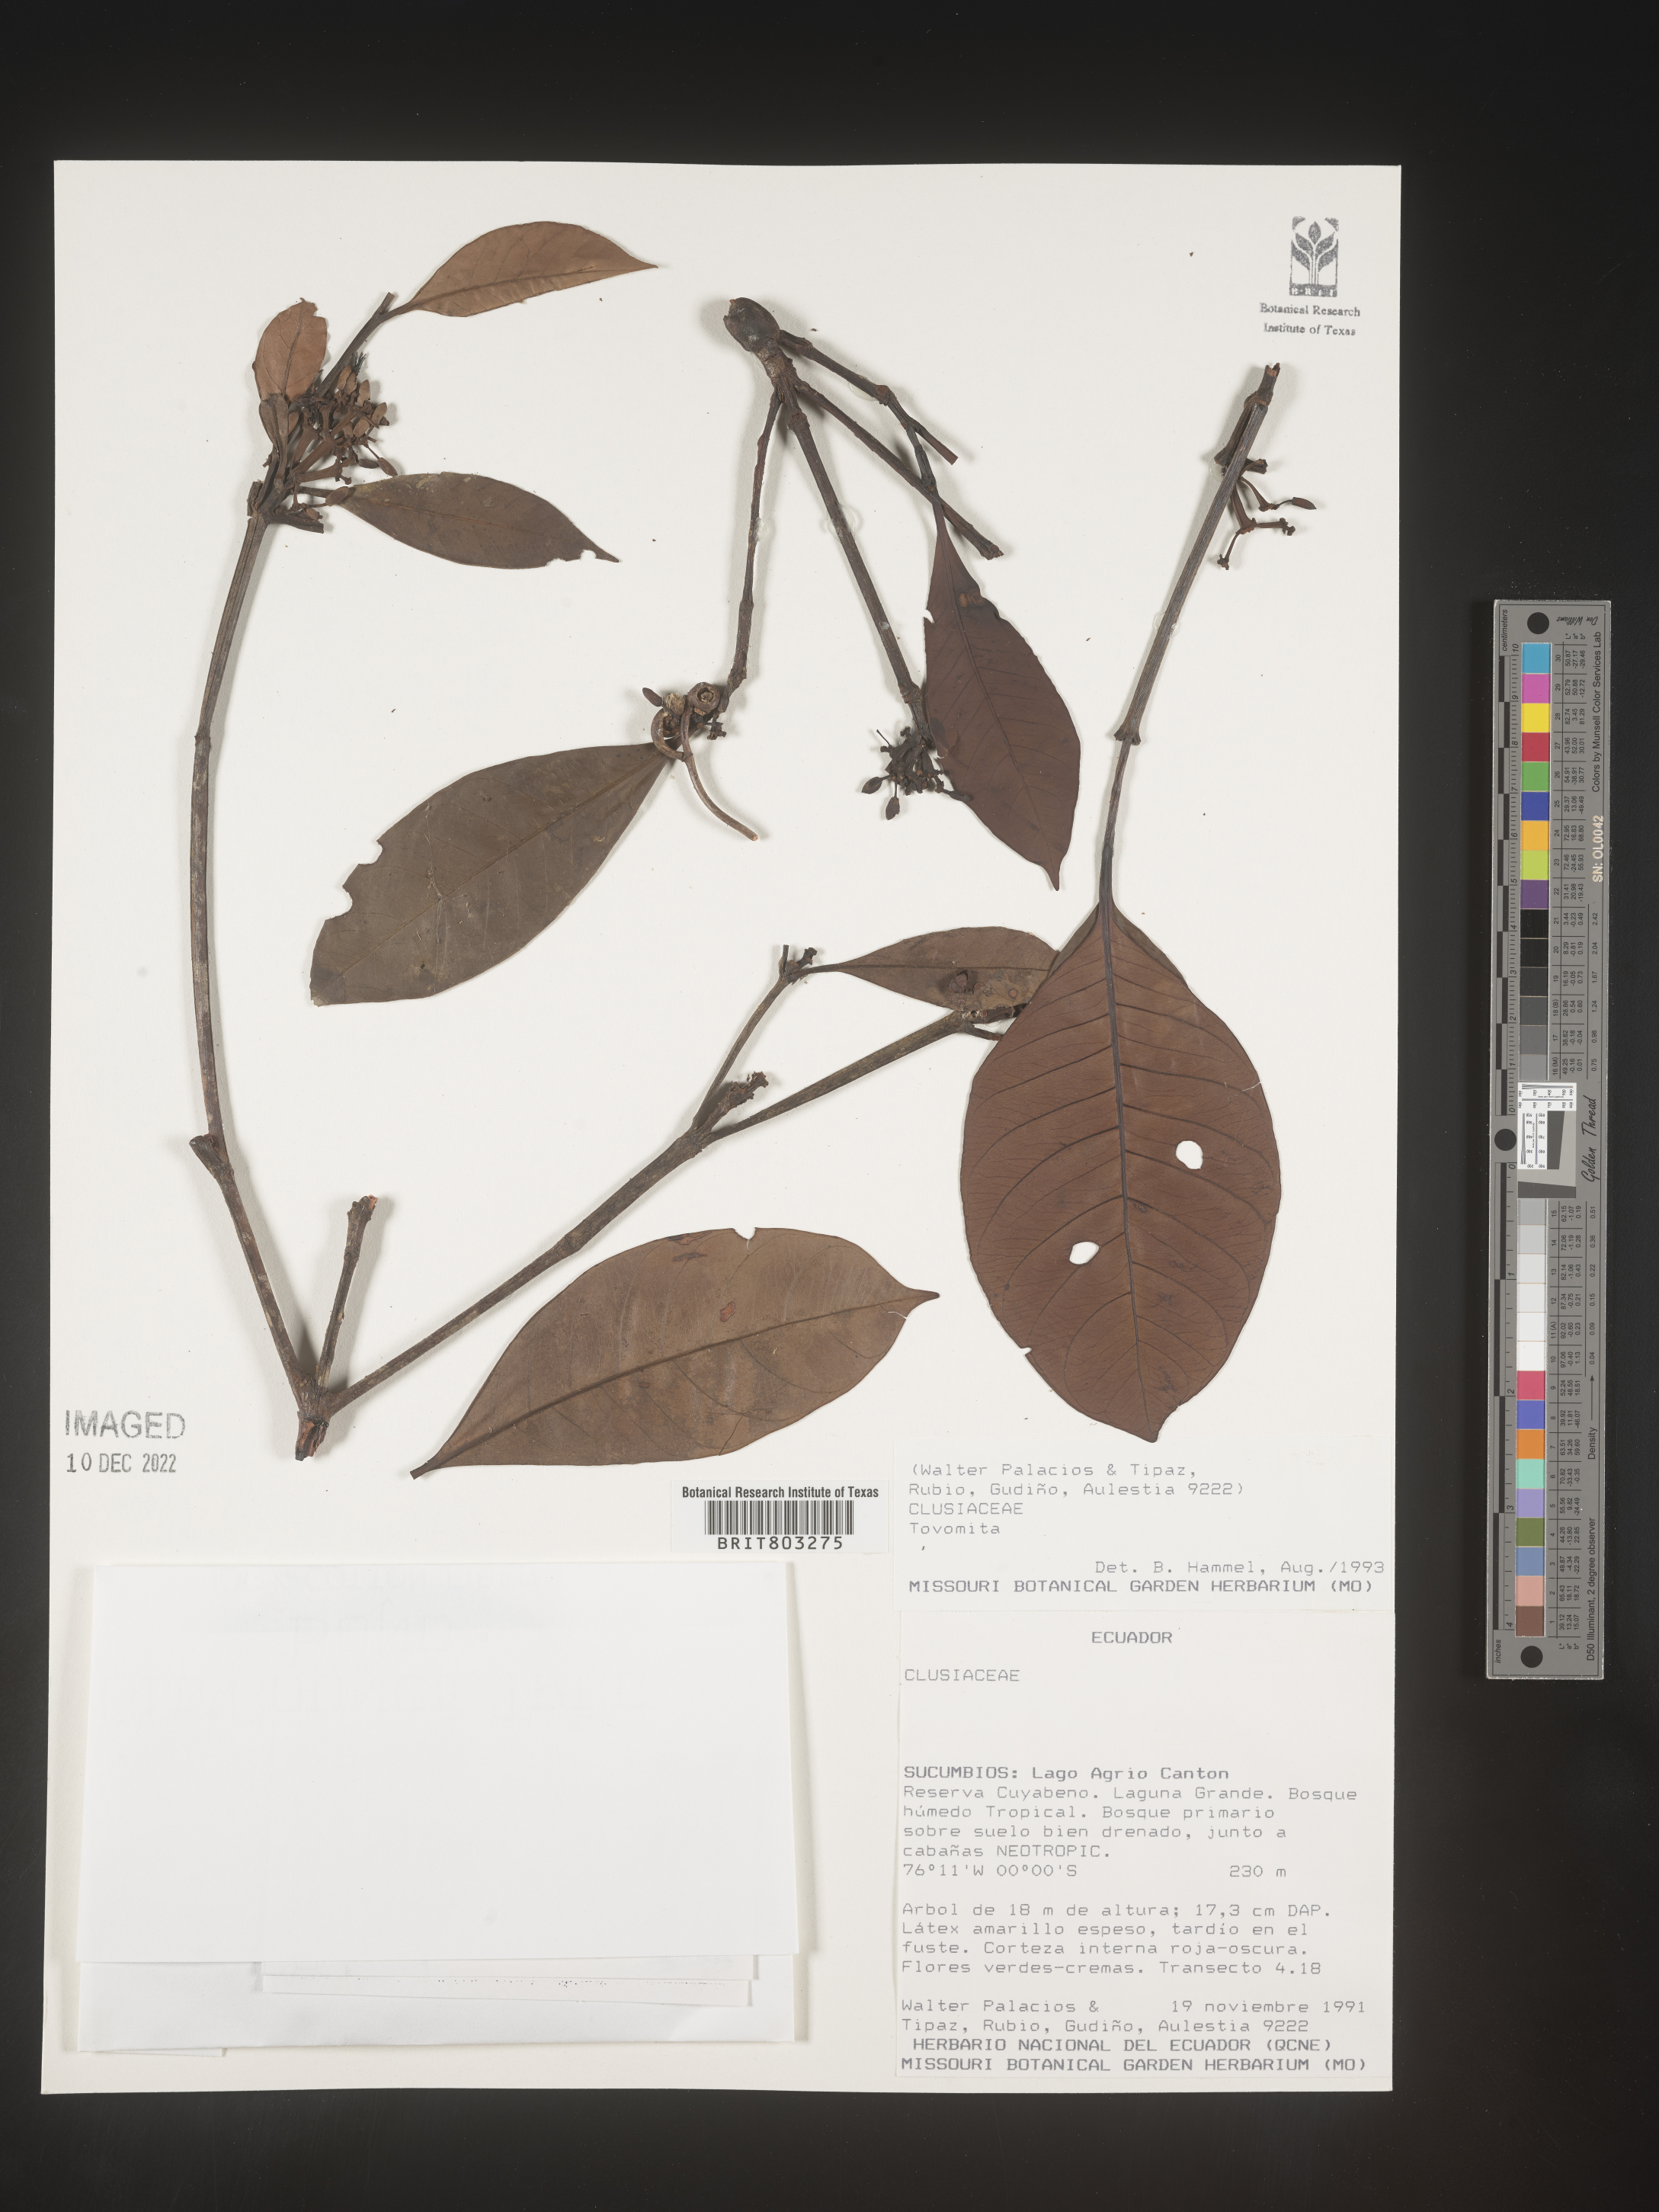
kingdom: Plantae
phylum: Tracheophyta
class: Magnoliopsida
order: Malpighiales
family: Clusiaceae
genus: Tovomita
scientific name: Tovomita
